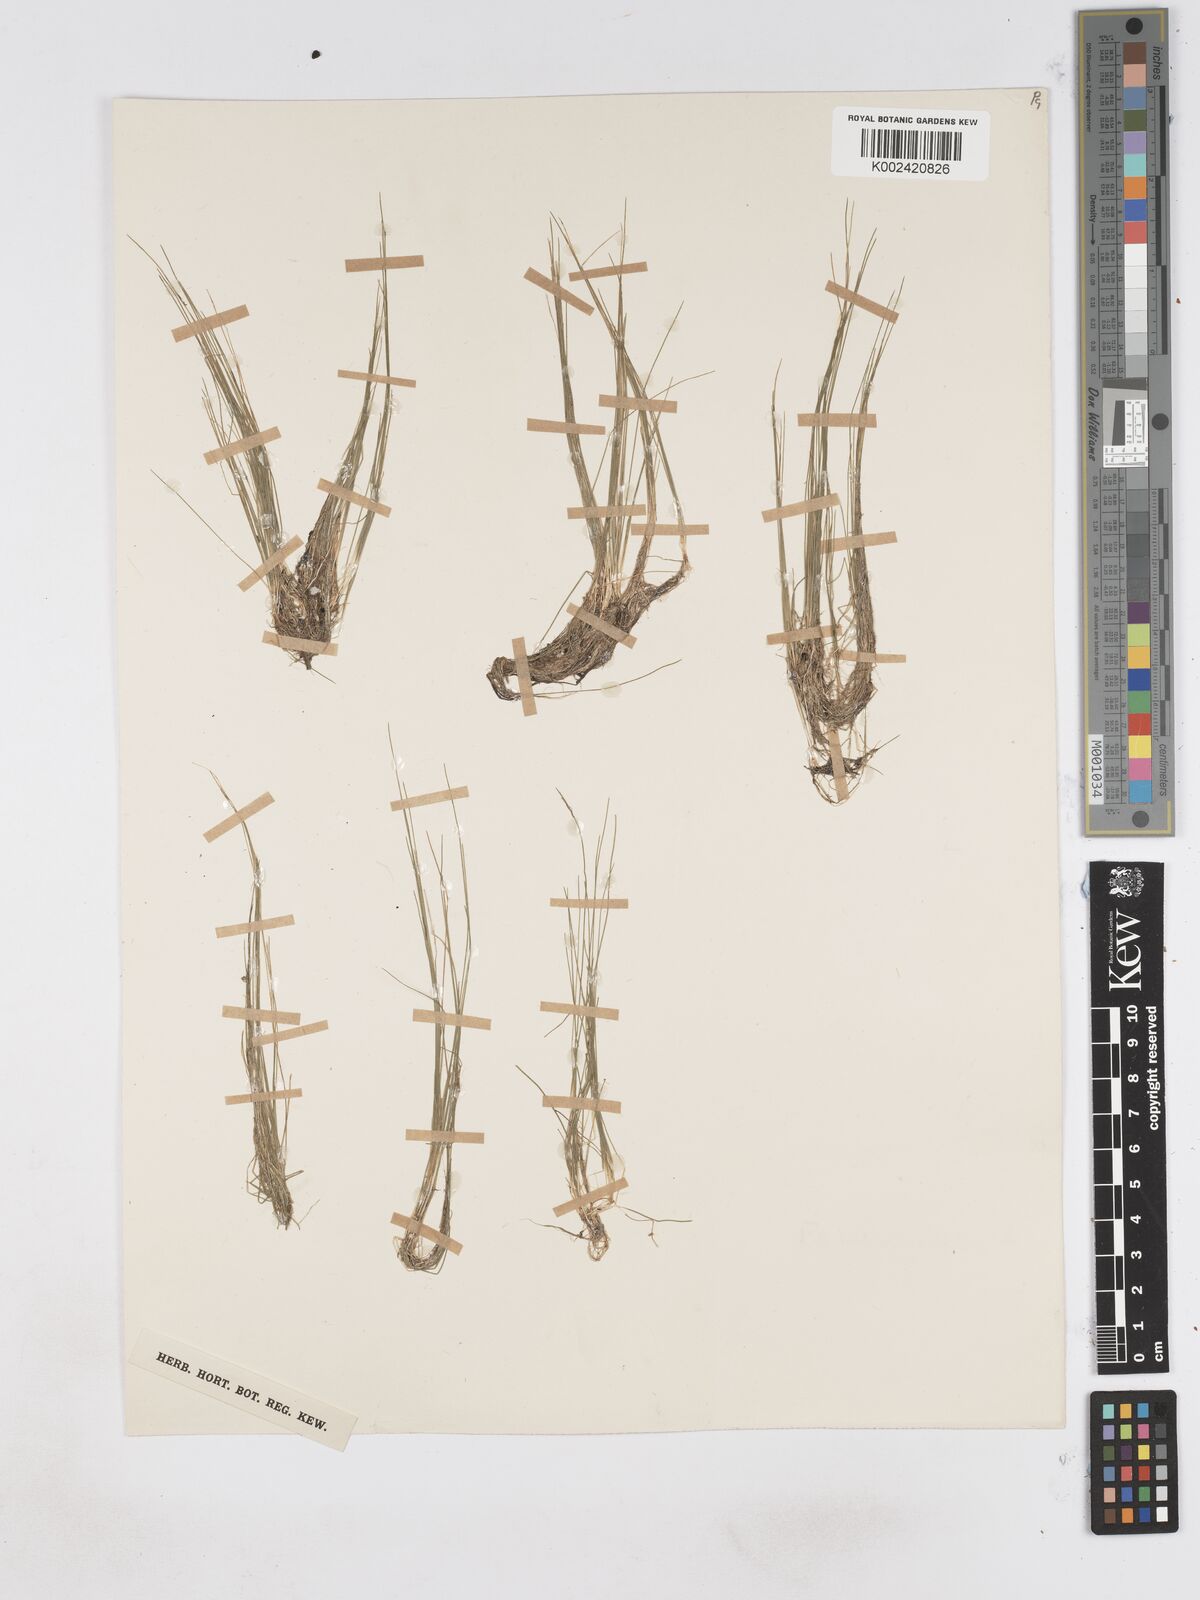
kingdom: Plantae
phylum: Tracheophyta
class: Liliopsida
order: Poales
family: Cyperaceae
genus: Eleocharis
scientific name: Eleocharis acicularis
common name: Needle spike-rush
